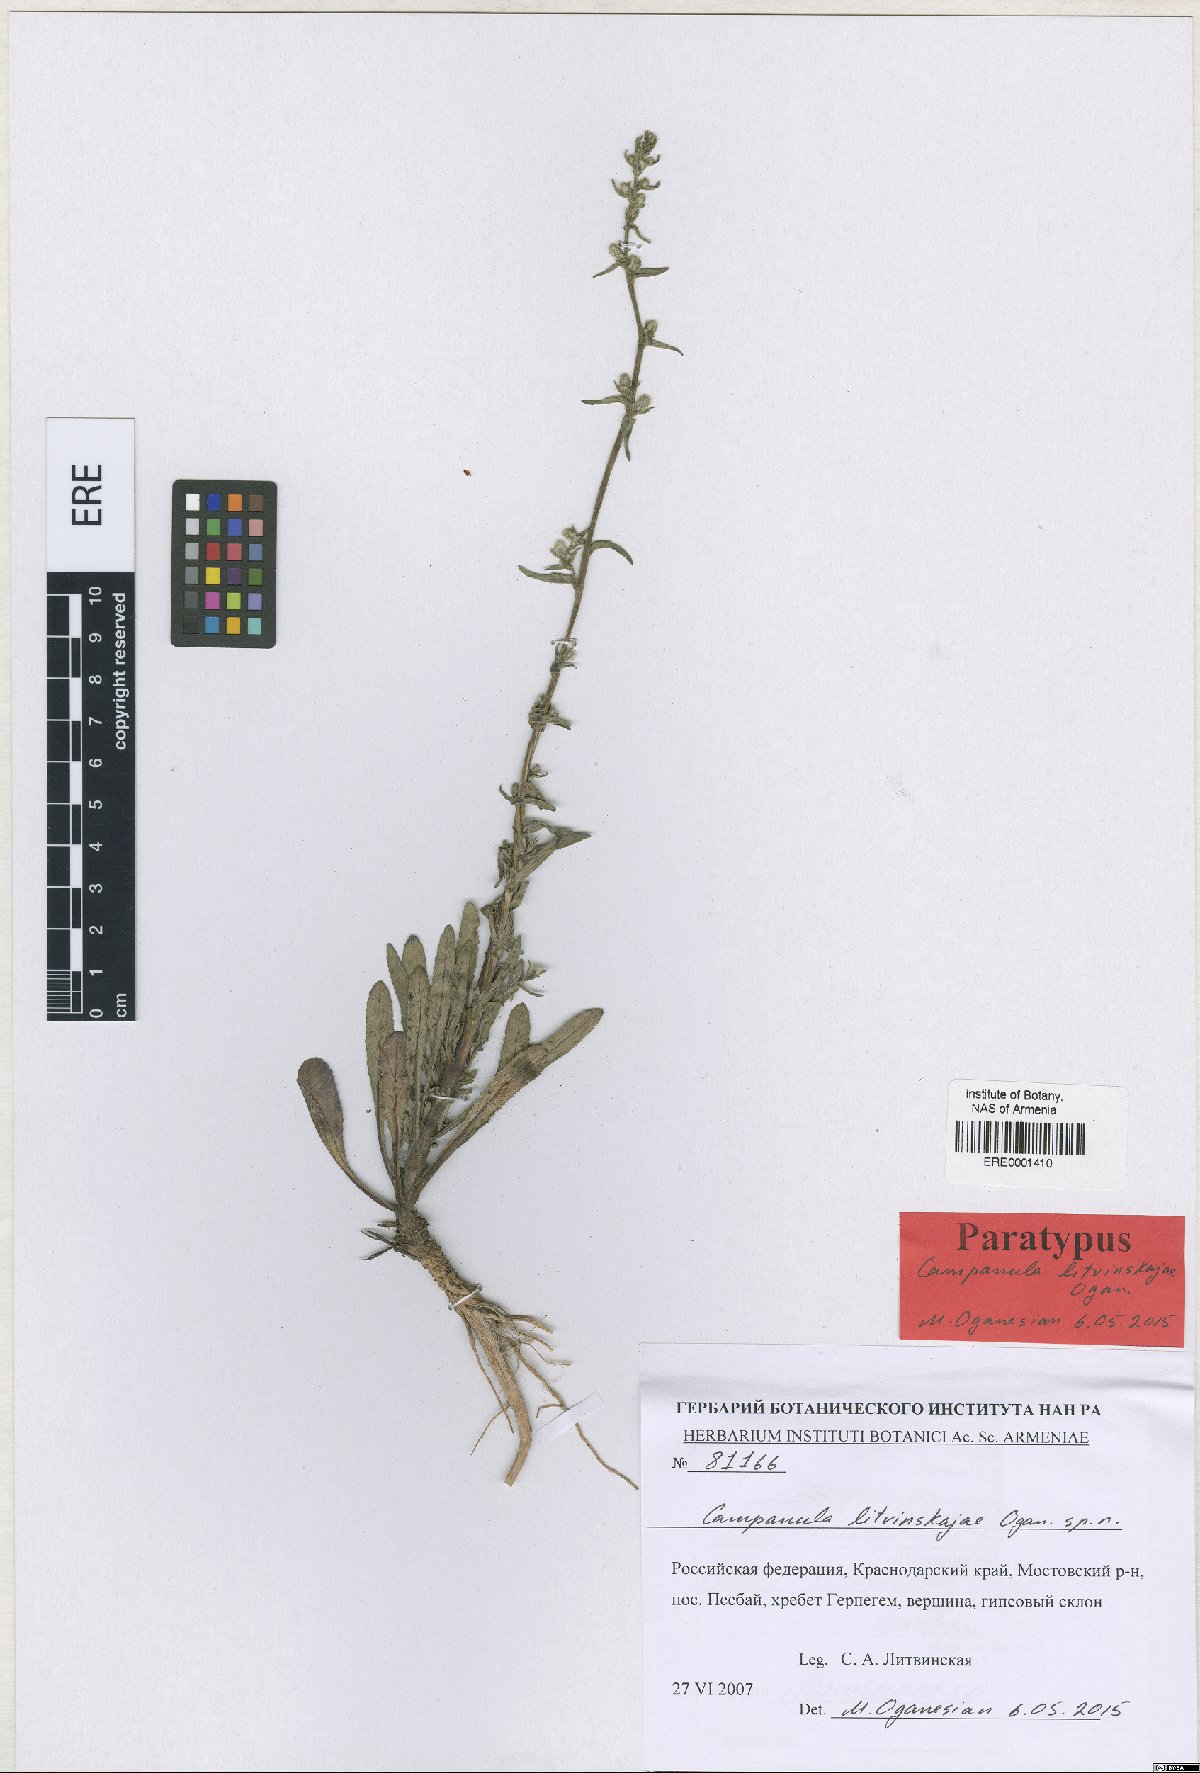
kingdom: Plantae
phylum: Tracheophyta
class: Magnoliopsida
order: Asterales
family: Campanulaceae
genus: Campanula
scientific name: Campanula litvinskajae
